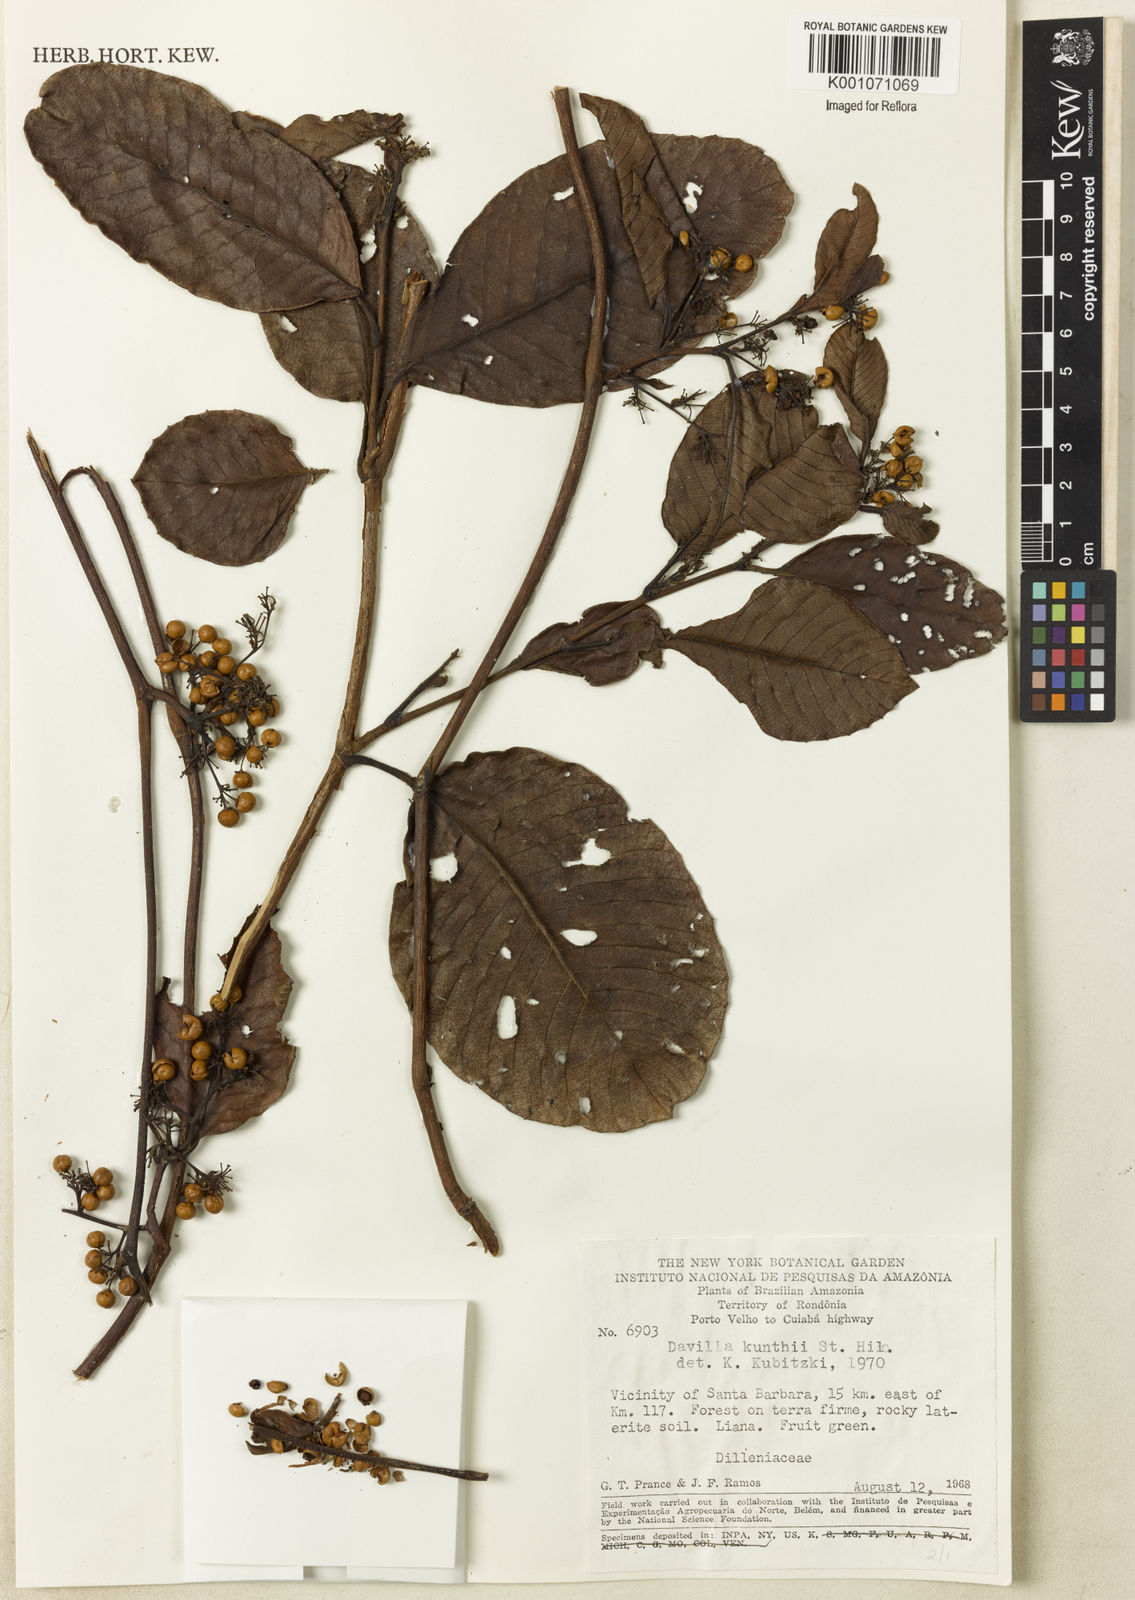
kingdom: Plantae
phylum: Tracheophyta
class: Magnoliopsida
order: Dilleniales
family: Dilleniaceae
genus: Davilla
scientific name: Davilla kunthii
